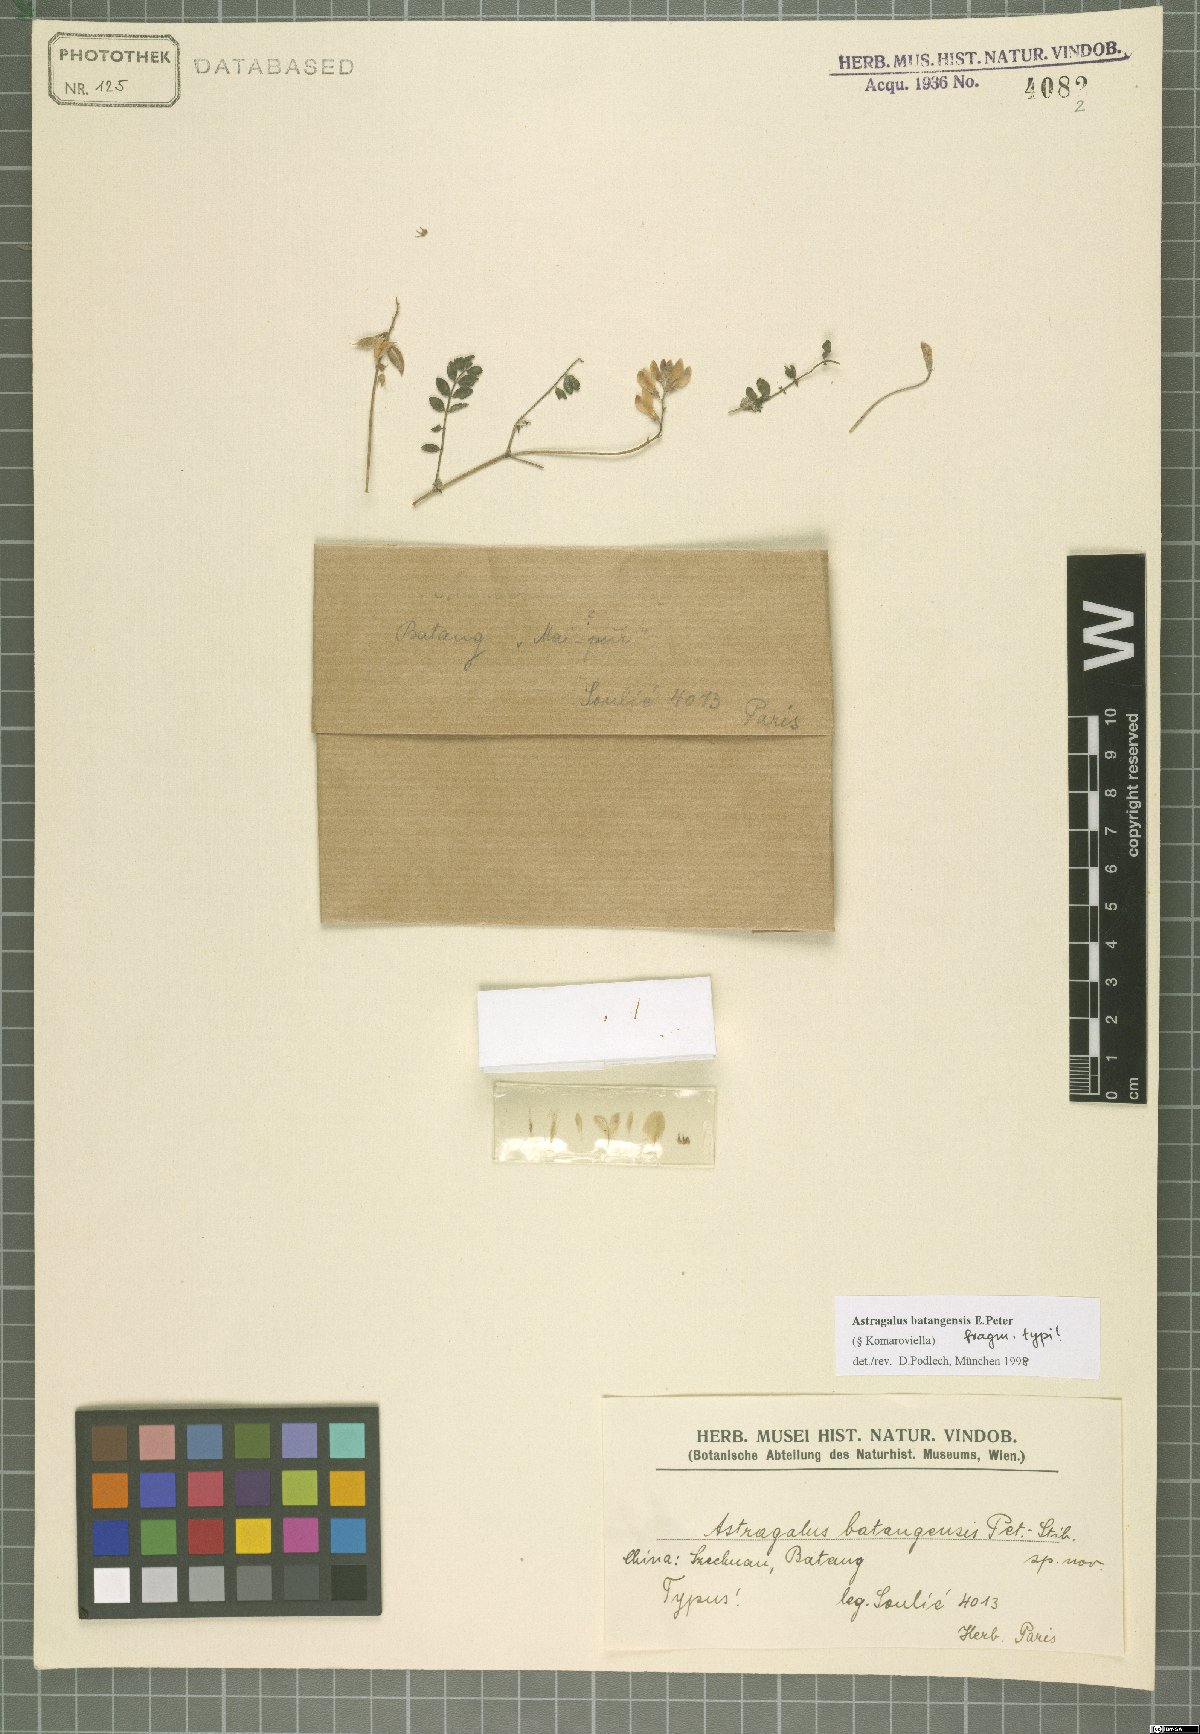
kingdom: Plantae
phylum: Tracheophyta
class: Magnoliopsida
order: Fabales
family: Fabaceae
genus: Astragalus
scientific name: Astragalus batangensis
